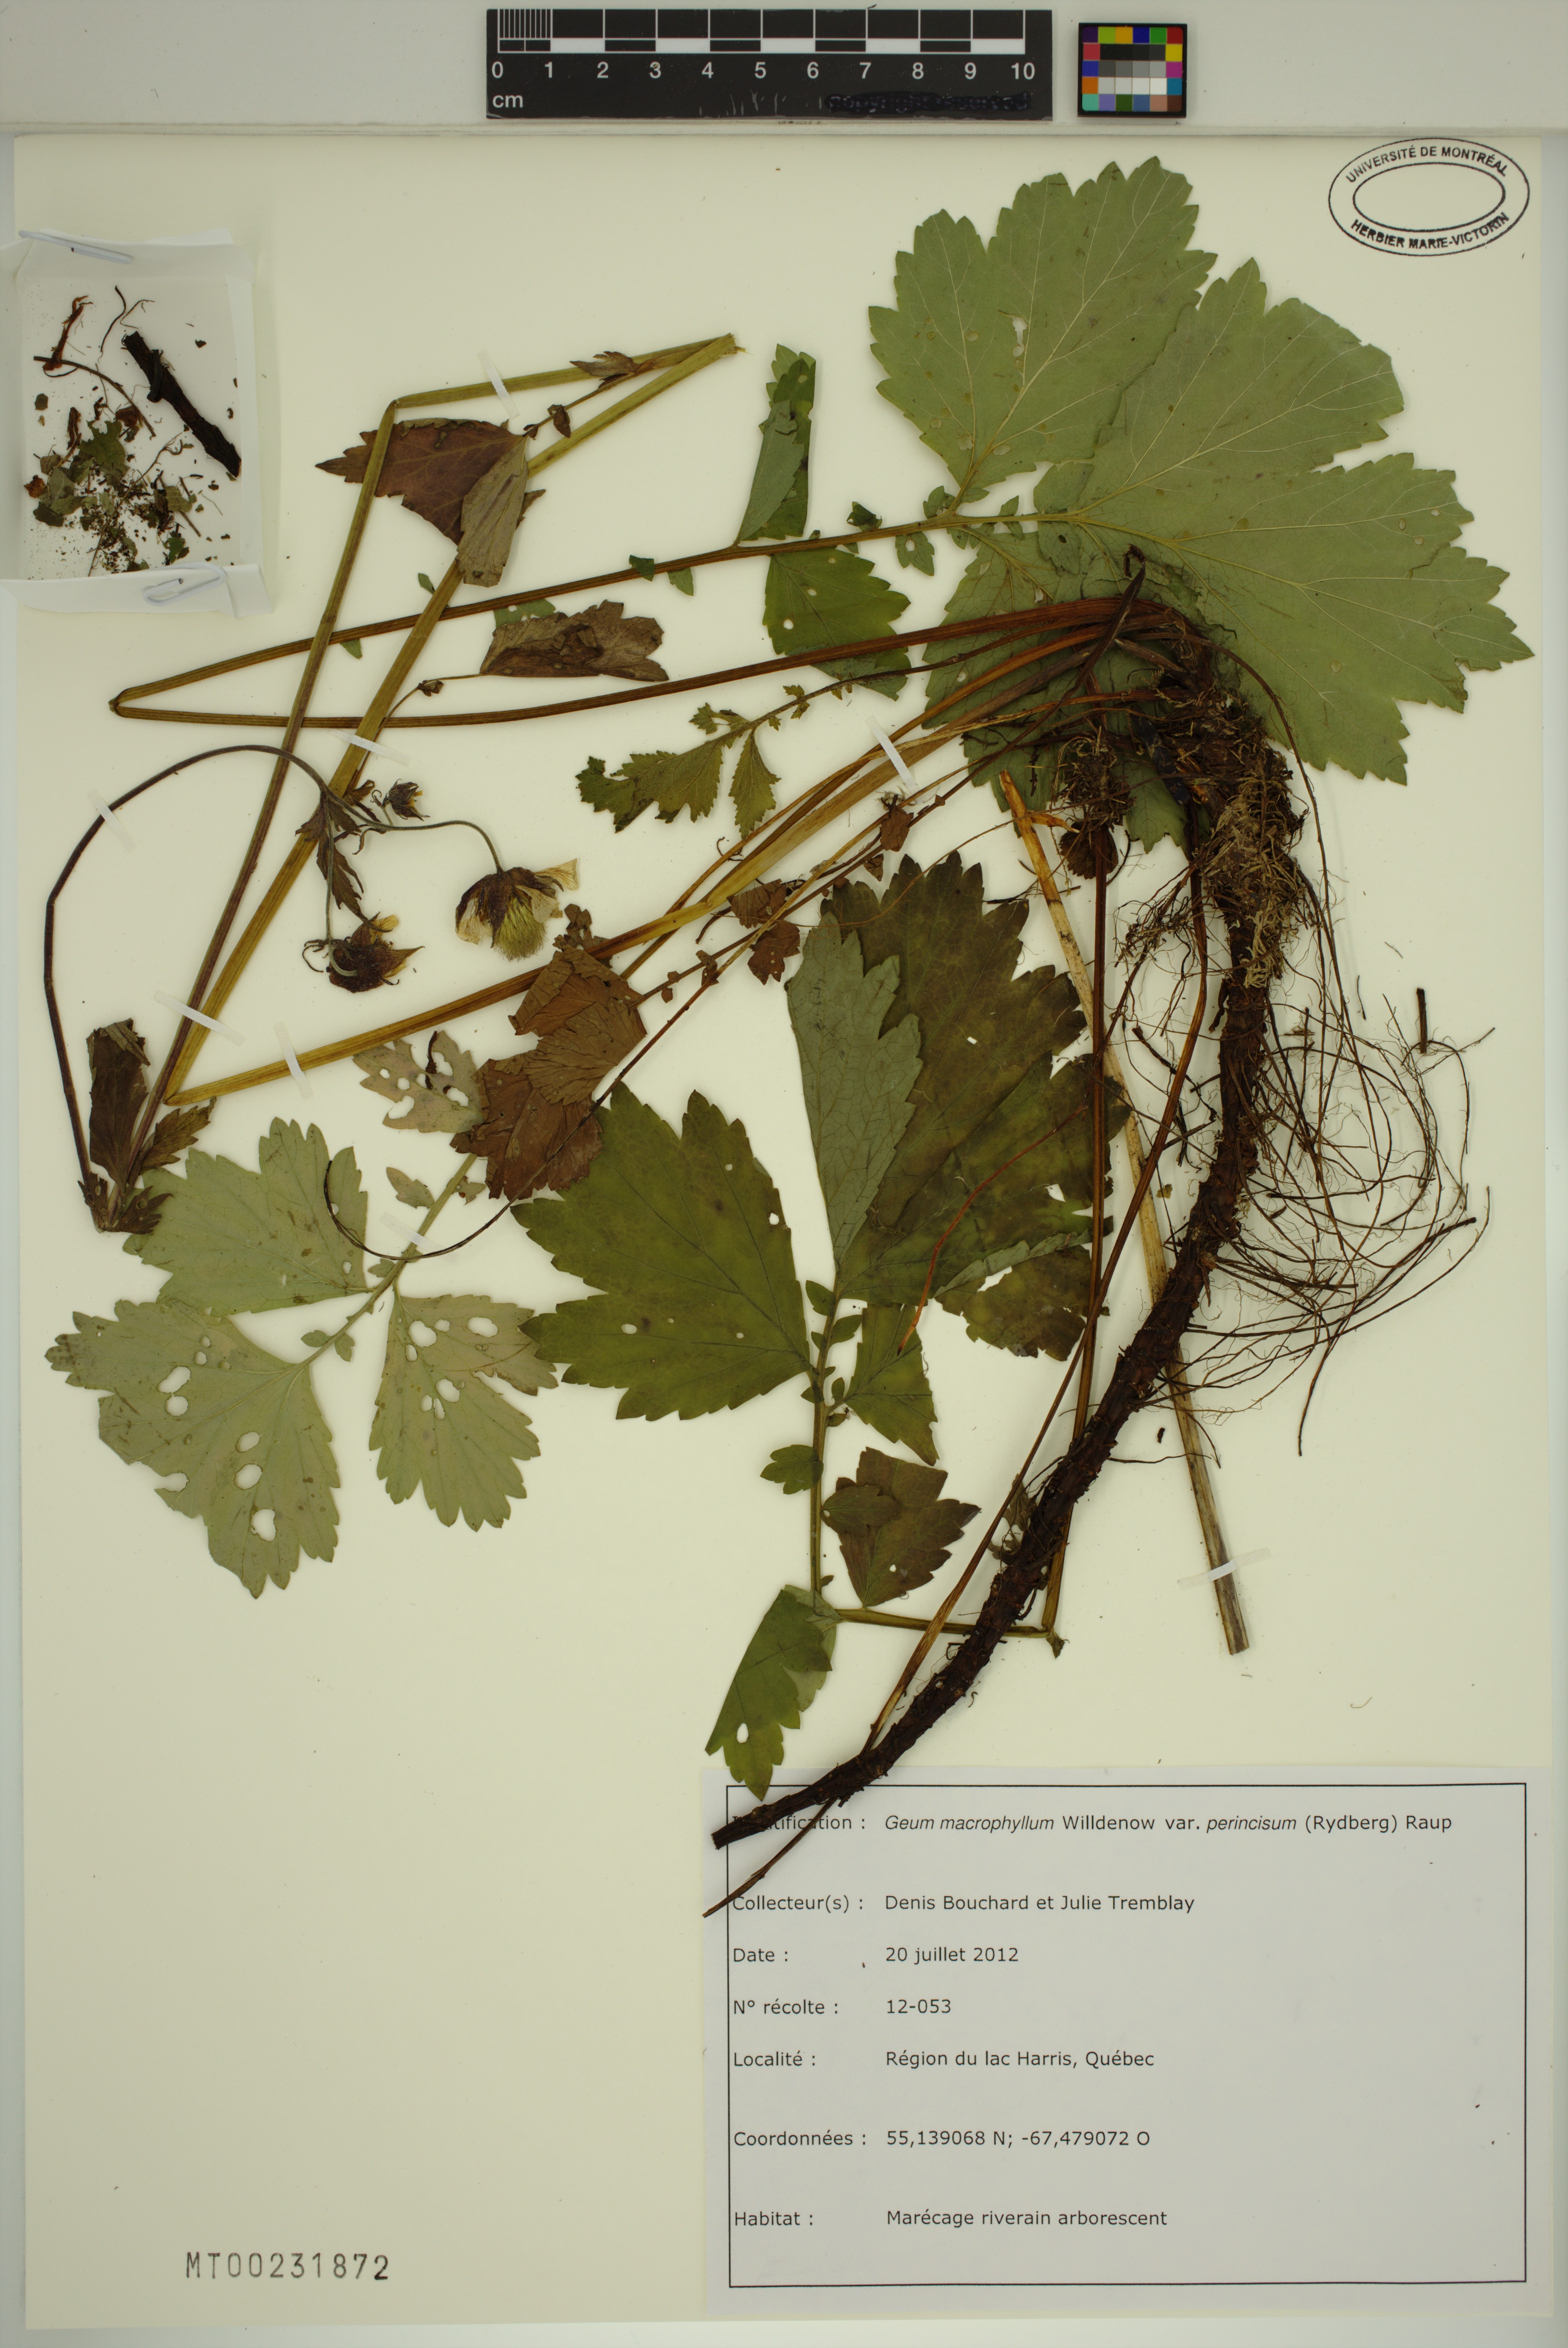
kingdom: Plantae
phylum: Tracheophyta
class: Magnoliopsida
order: Rosales
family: Rosaceae
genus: Geum
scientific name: Geum macrophyllum
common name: Large-leaved avens
